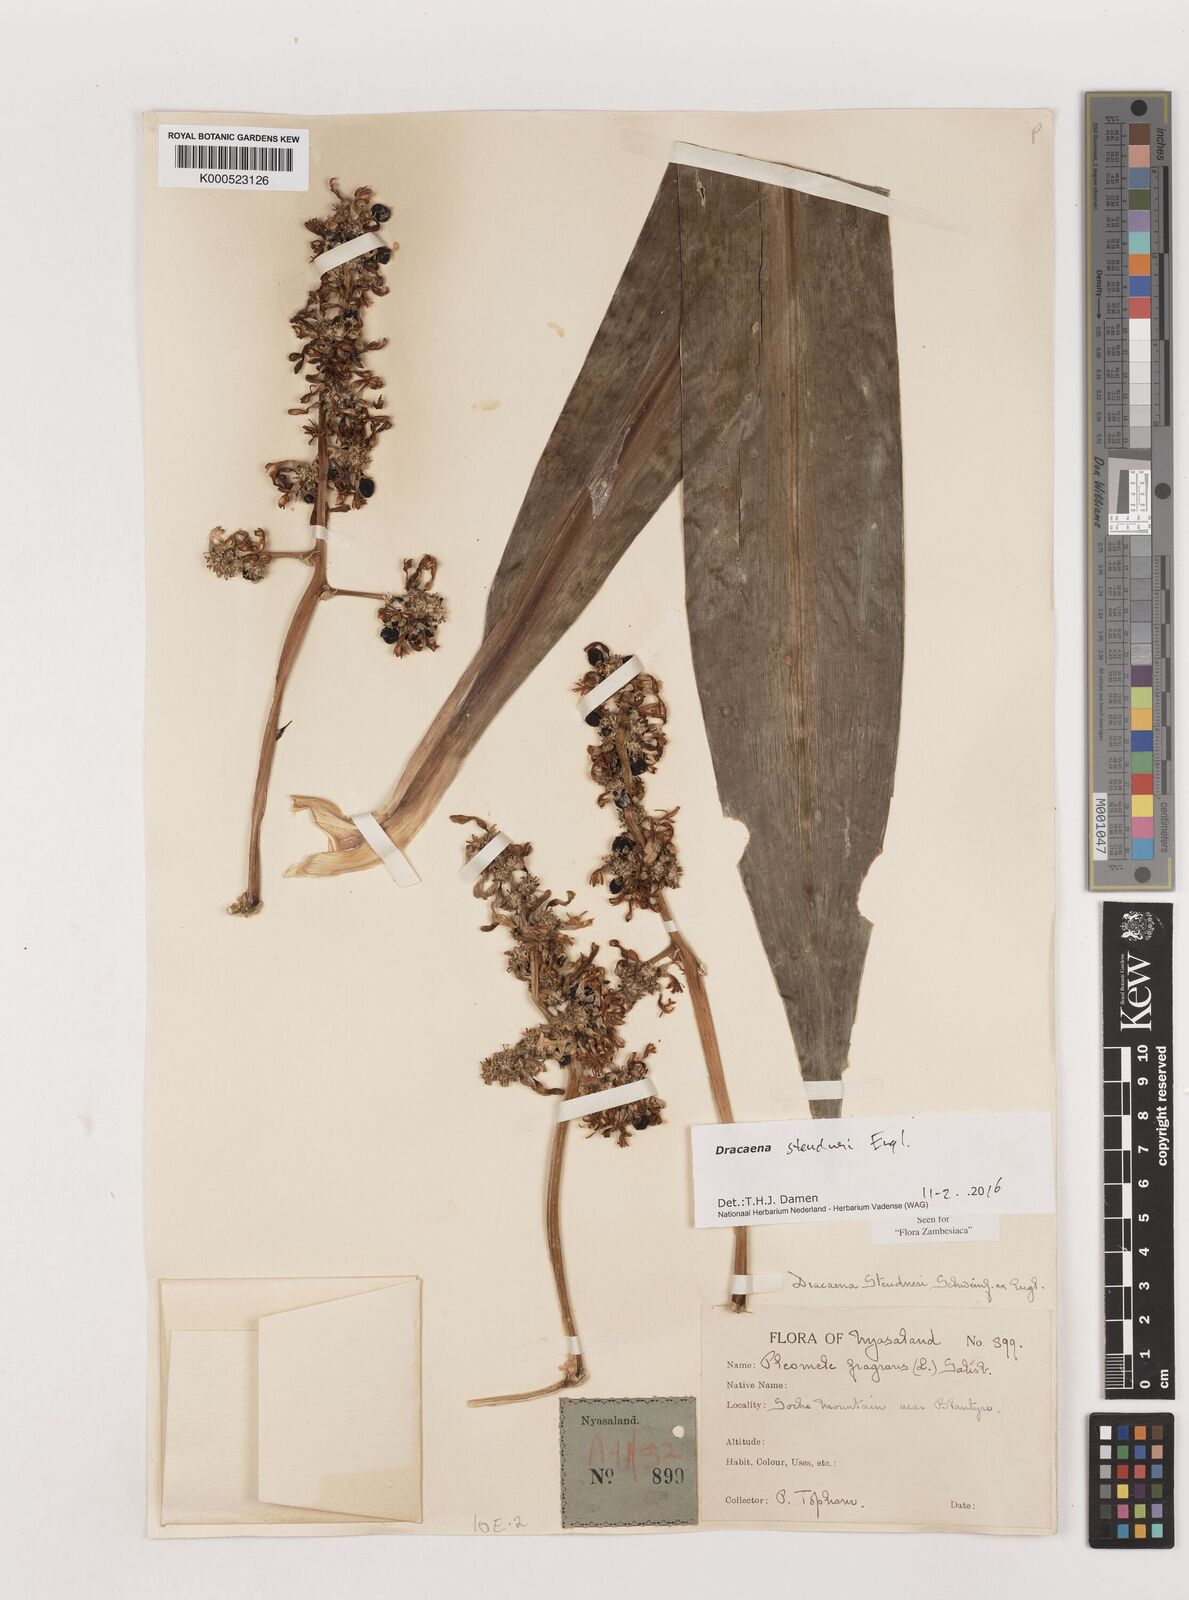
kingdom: Plantae
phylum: Tracheophyta
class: Liliopsida
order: Asparagales
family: Asparagaceae
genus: Dracaena
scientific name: Dracaena steudneri
